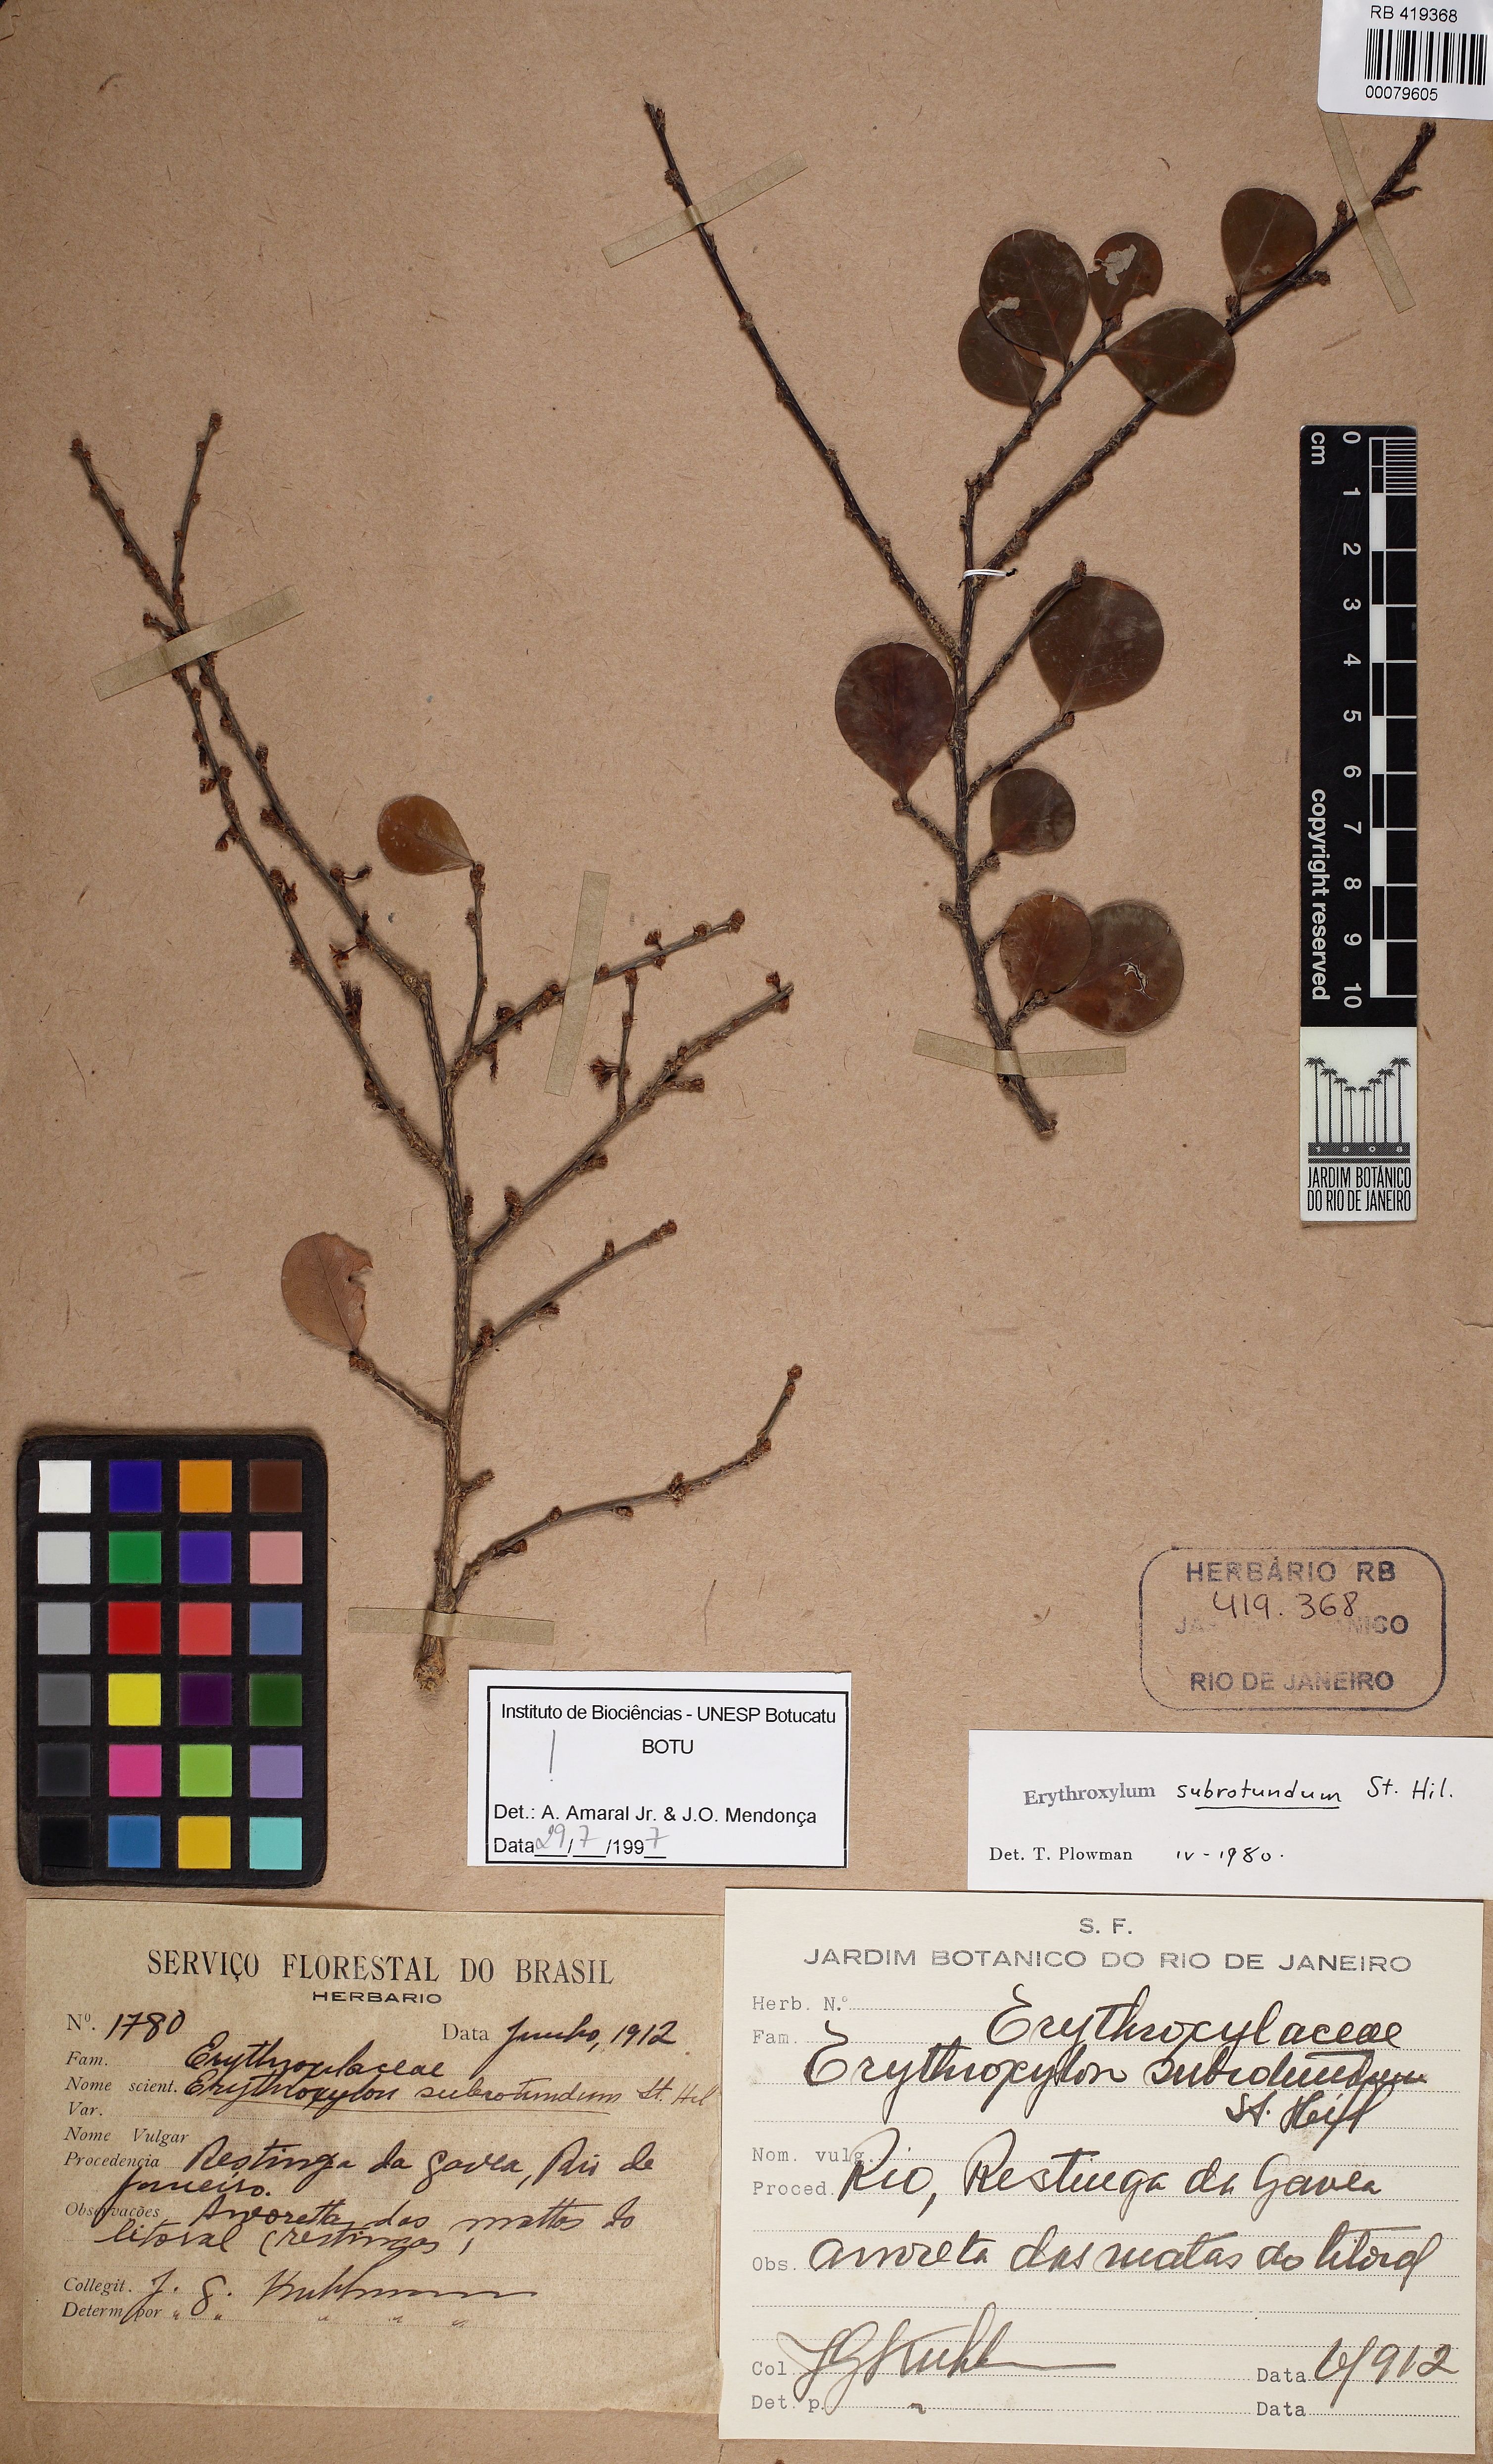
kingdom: Plantae
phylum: Tracheophyta
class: Magnoliopsida
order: Malpighiales
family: Erythroxylaceae
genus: Erythroxylum
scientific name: Erythroxylum subrotundum
